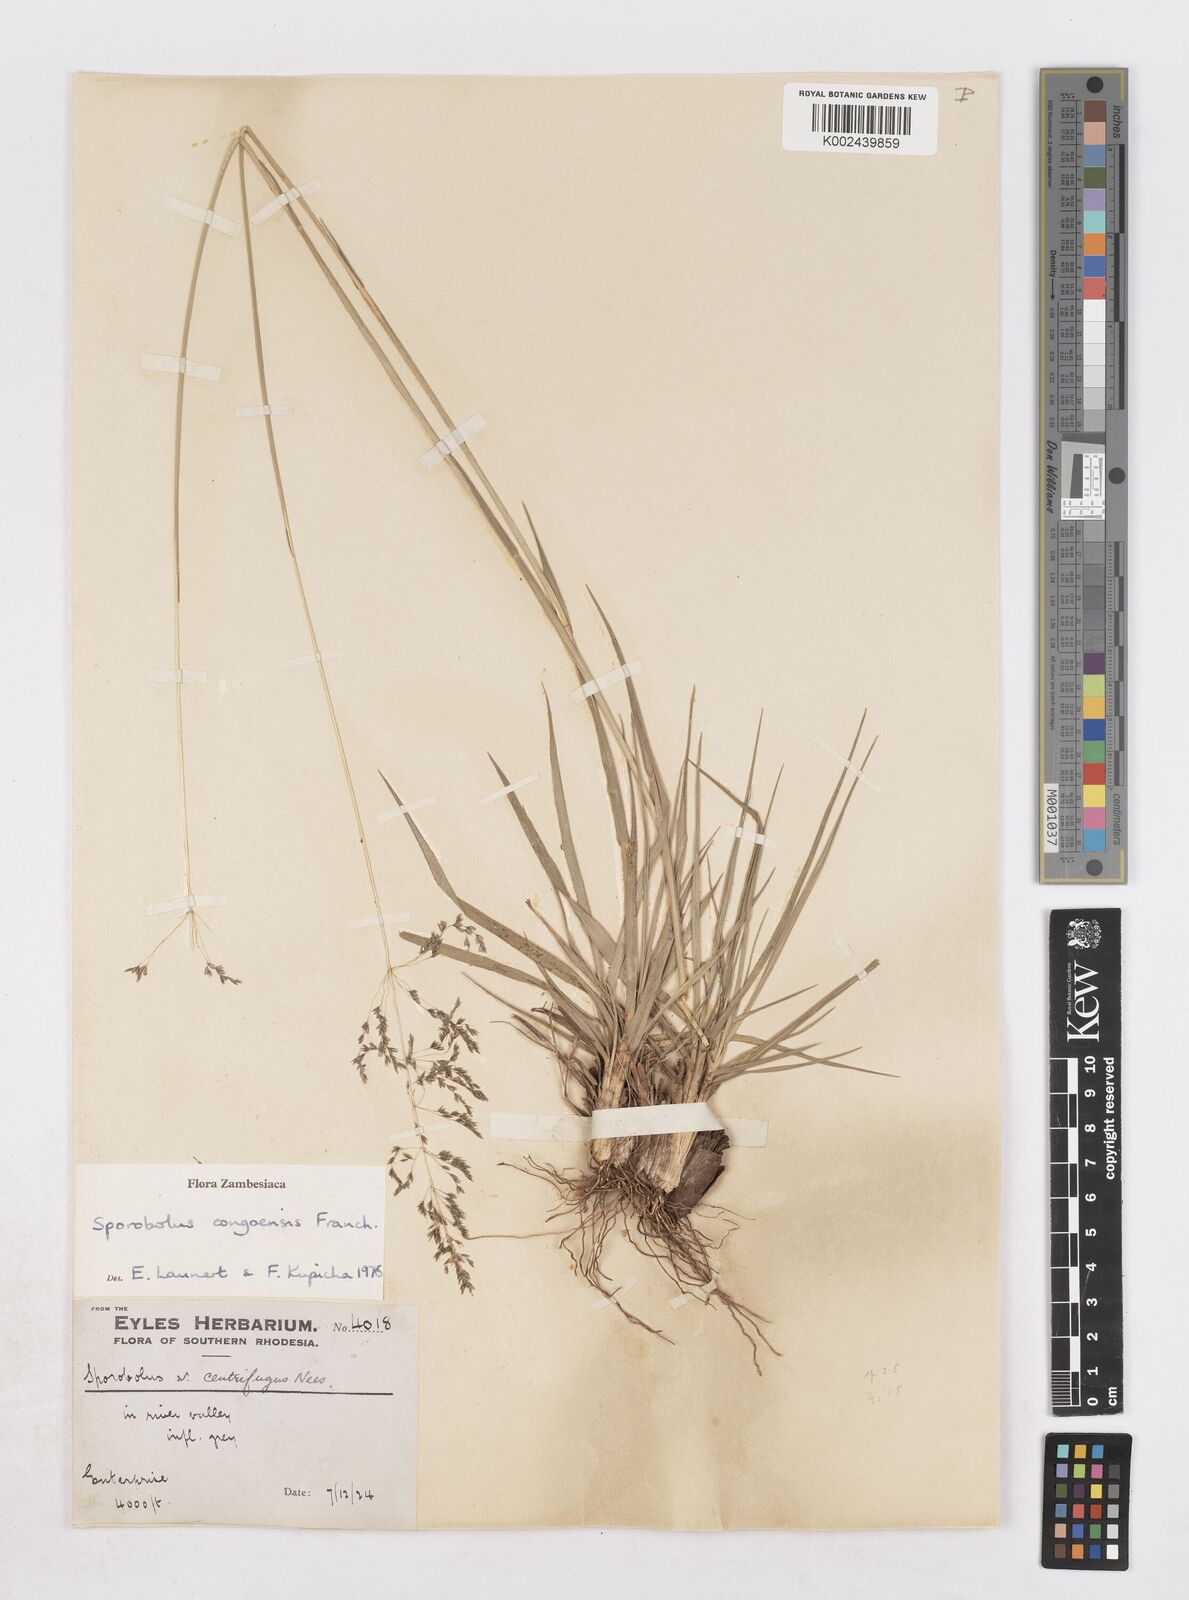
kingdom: Plantae
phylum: Tracheophyta
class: Liliopsida
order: Poales
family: Poaceae
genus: Sporobolus
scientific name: Sporobolus congoensis
